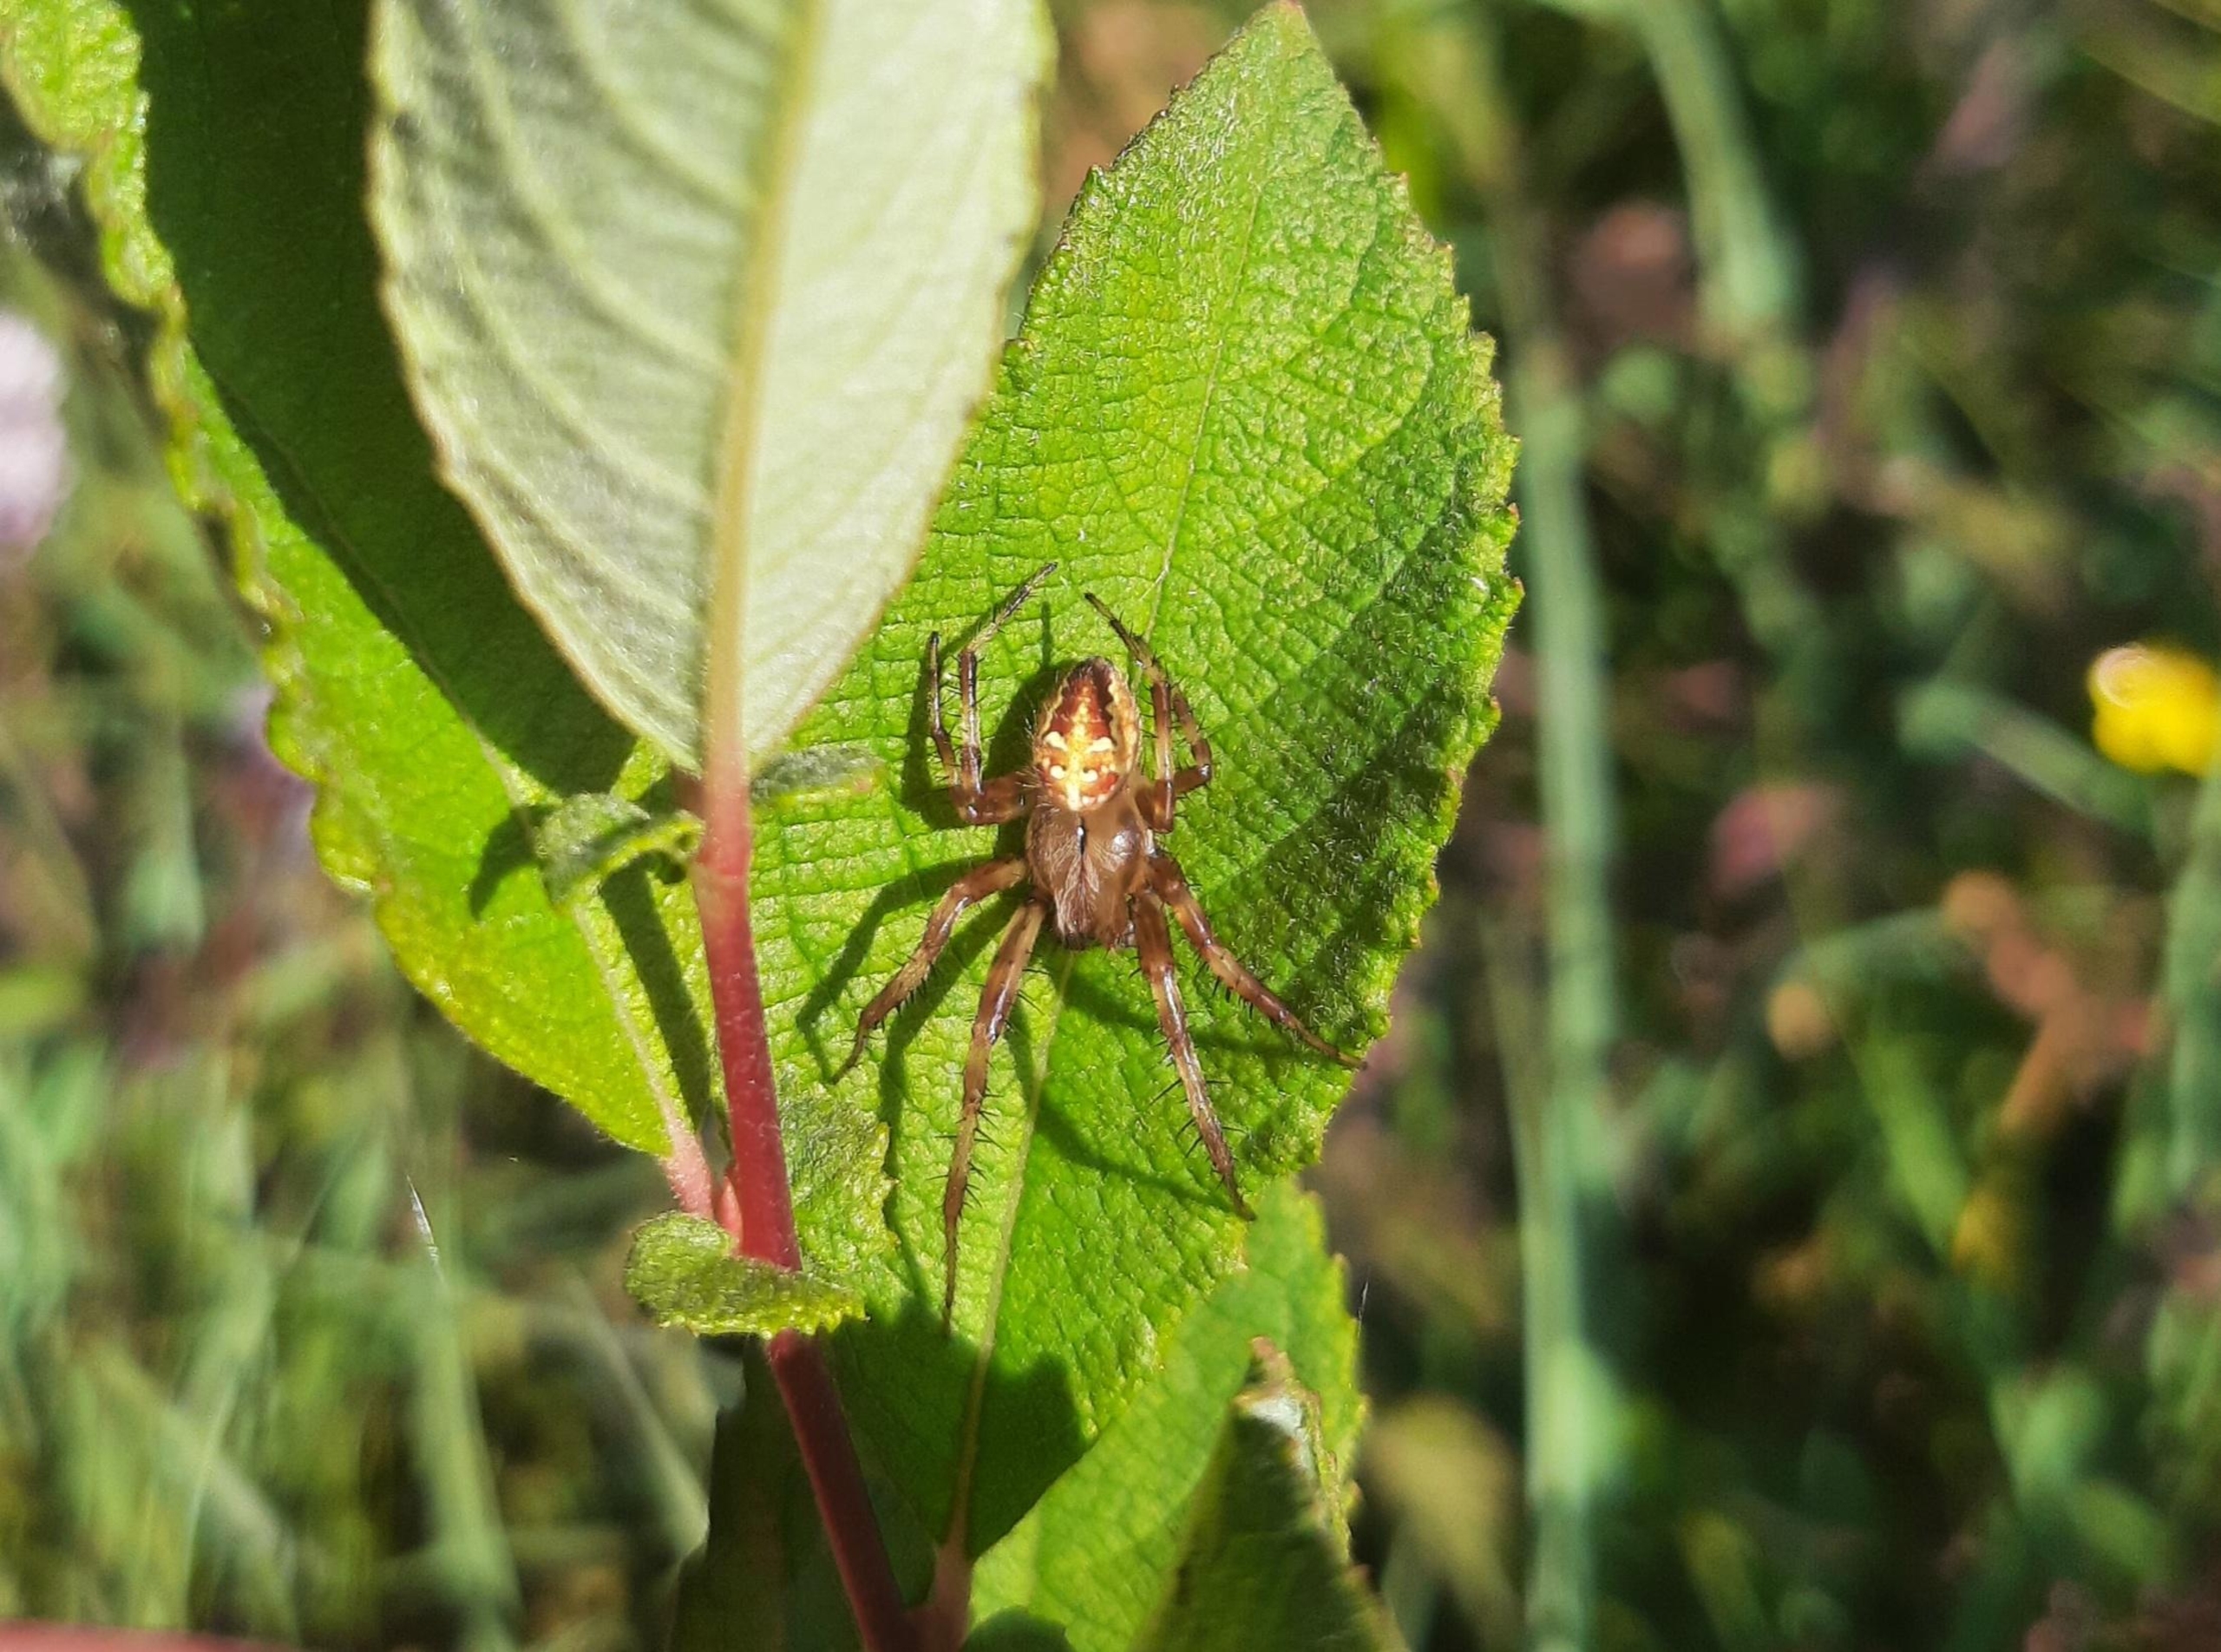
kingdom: Animalia
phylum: Arthropoda
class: Arachnida
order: Araneae
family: Araneidae
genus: Araneus
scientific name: Araneus quadratus
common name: Kvadratedderkop
